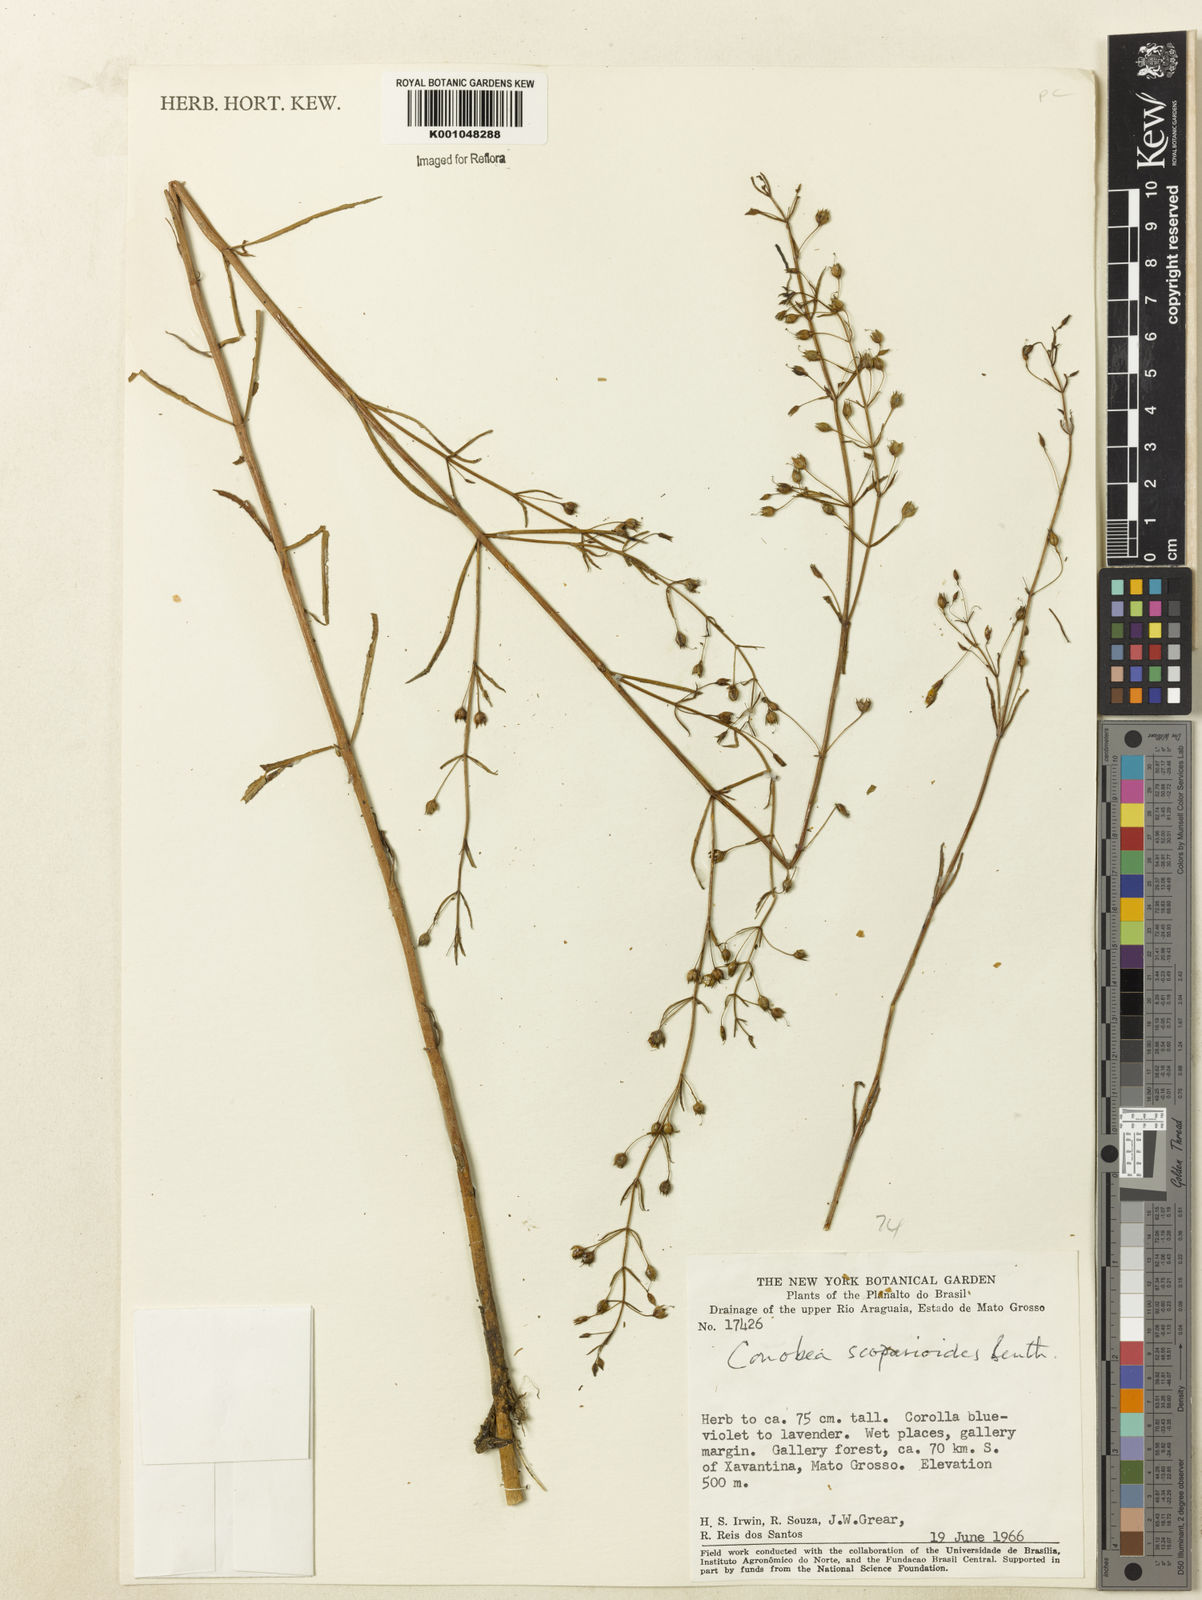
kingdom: Plantae
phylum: Tracheophyta
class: Magnoliopsida
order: Lamiales
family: Plantaginaceae
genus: Conobea
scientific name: Conobea scoparioides
